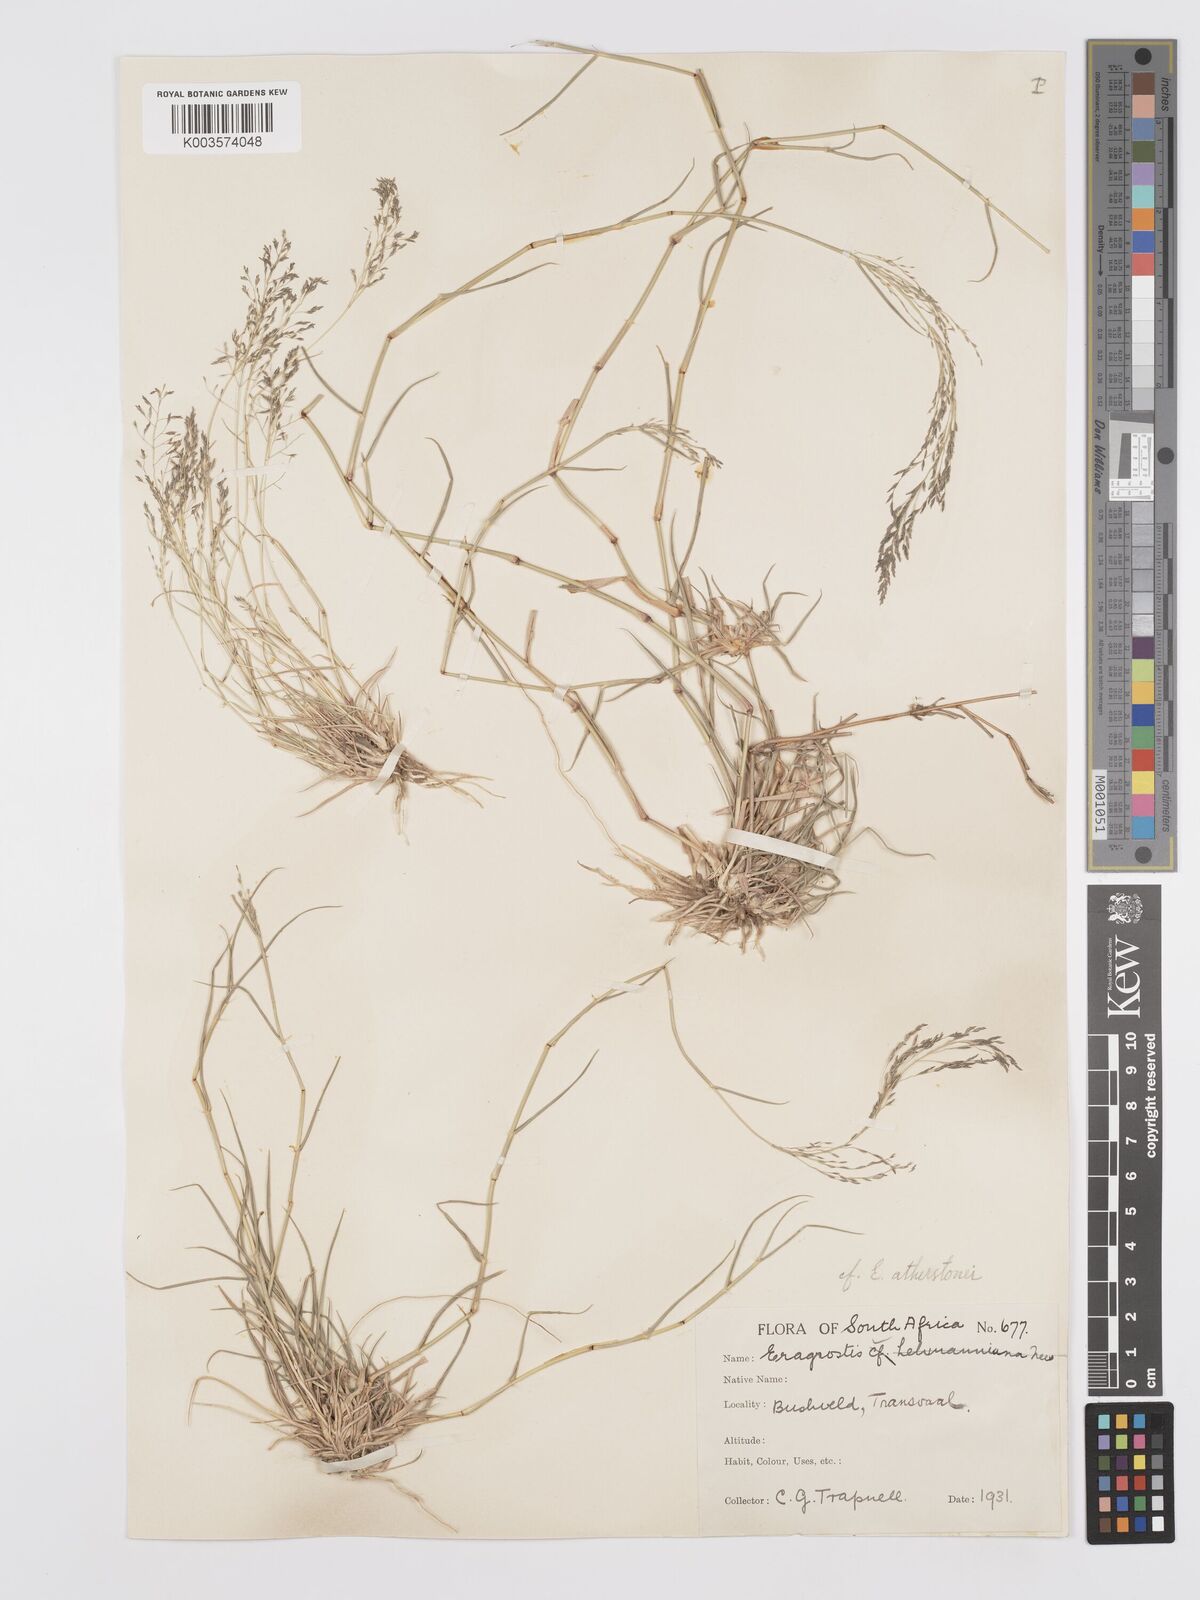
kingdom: Plantae
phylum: Tracheophyta
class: Liliopsida
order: Poales
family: Poaceae
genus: Eragrostis
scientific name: Eragrostis cylindriflora
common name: Cylinderflower lovegrass
